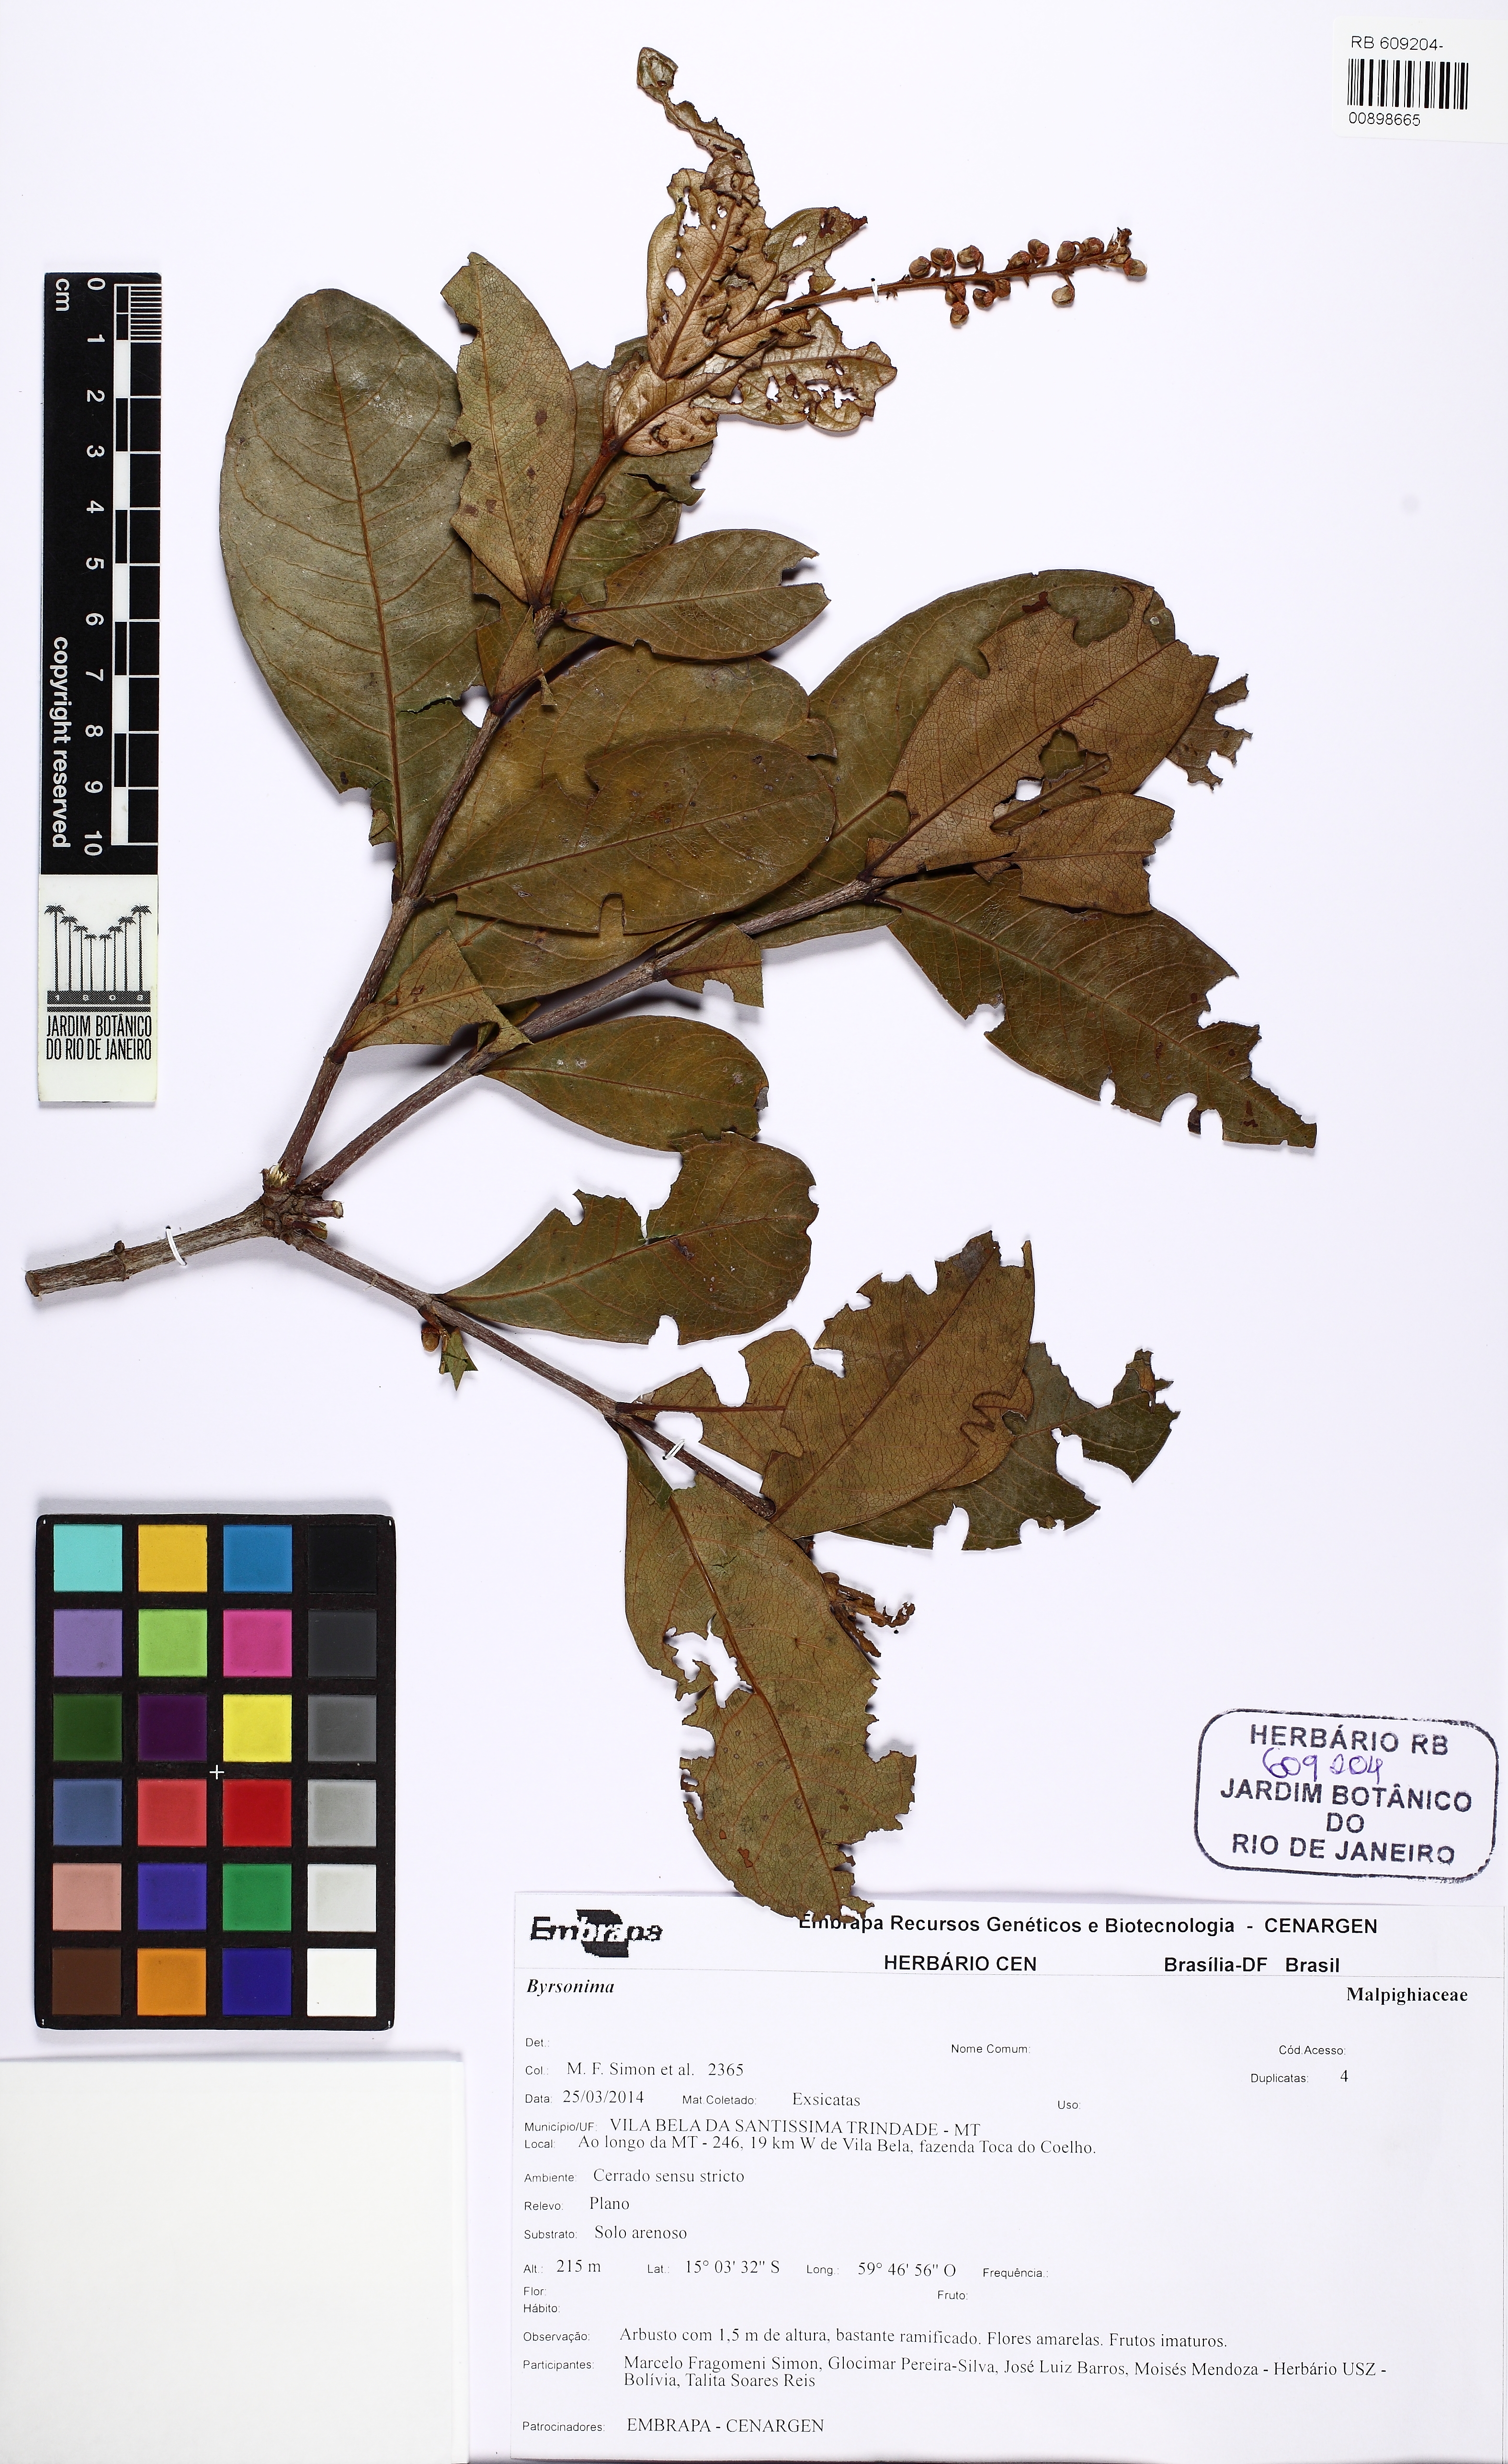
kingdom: Plantae
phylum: Tracheophyta
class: Magnoliopsida
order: Malpighiales
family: Malpighiaceae
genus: Byrsonima
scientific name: Byrsonima
